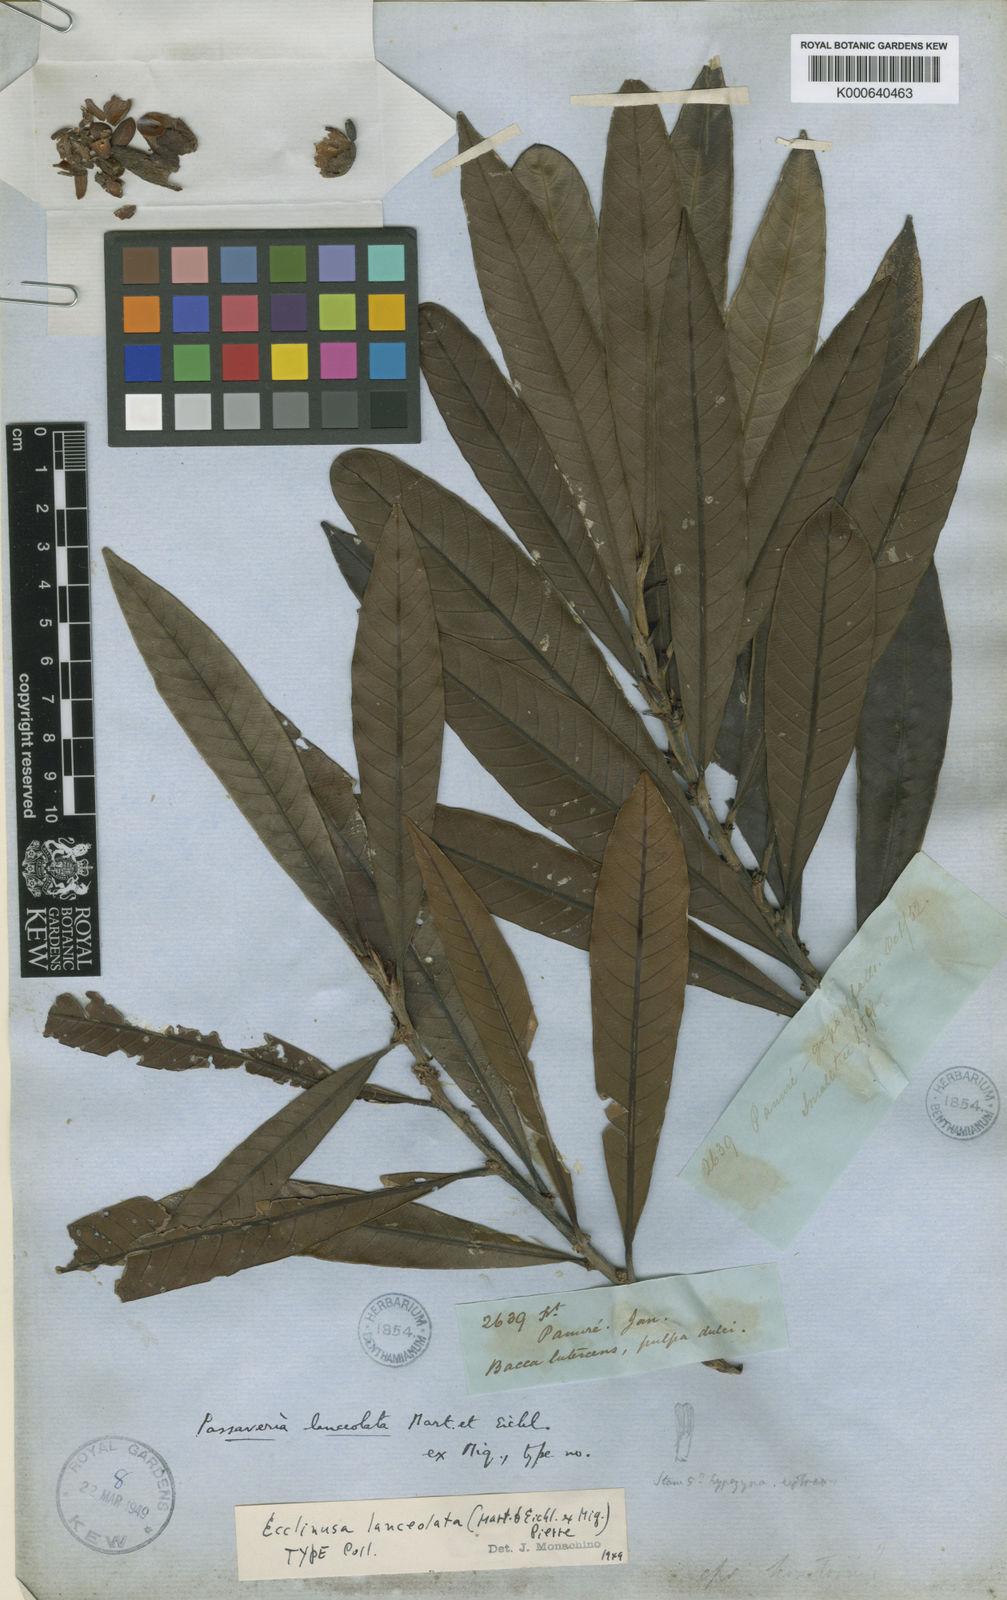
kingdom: Plantae
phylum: Tracheophyta
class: Magnoliopsida
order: Ericales
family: Sapotaceae
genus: Ecclinusa
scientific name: Ecclinusa lanceolata
